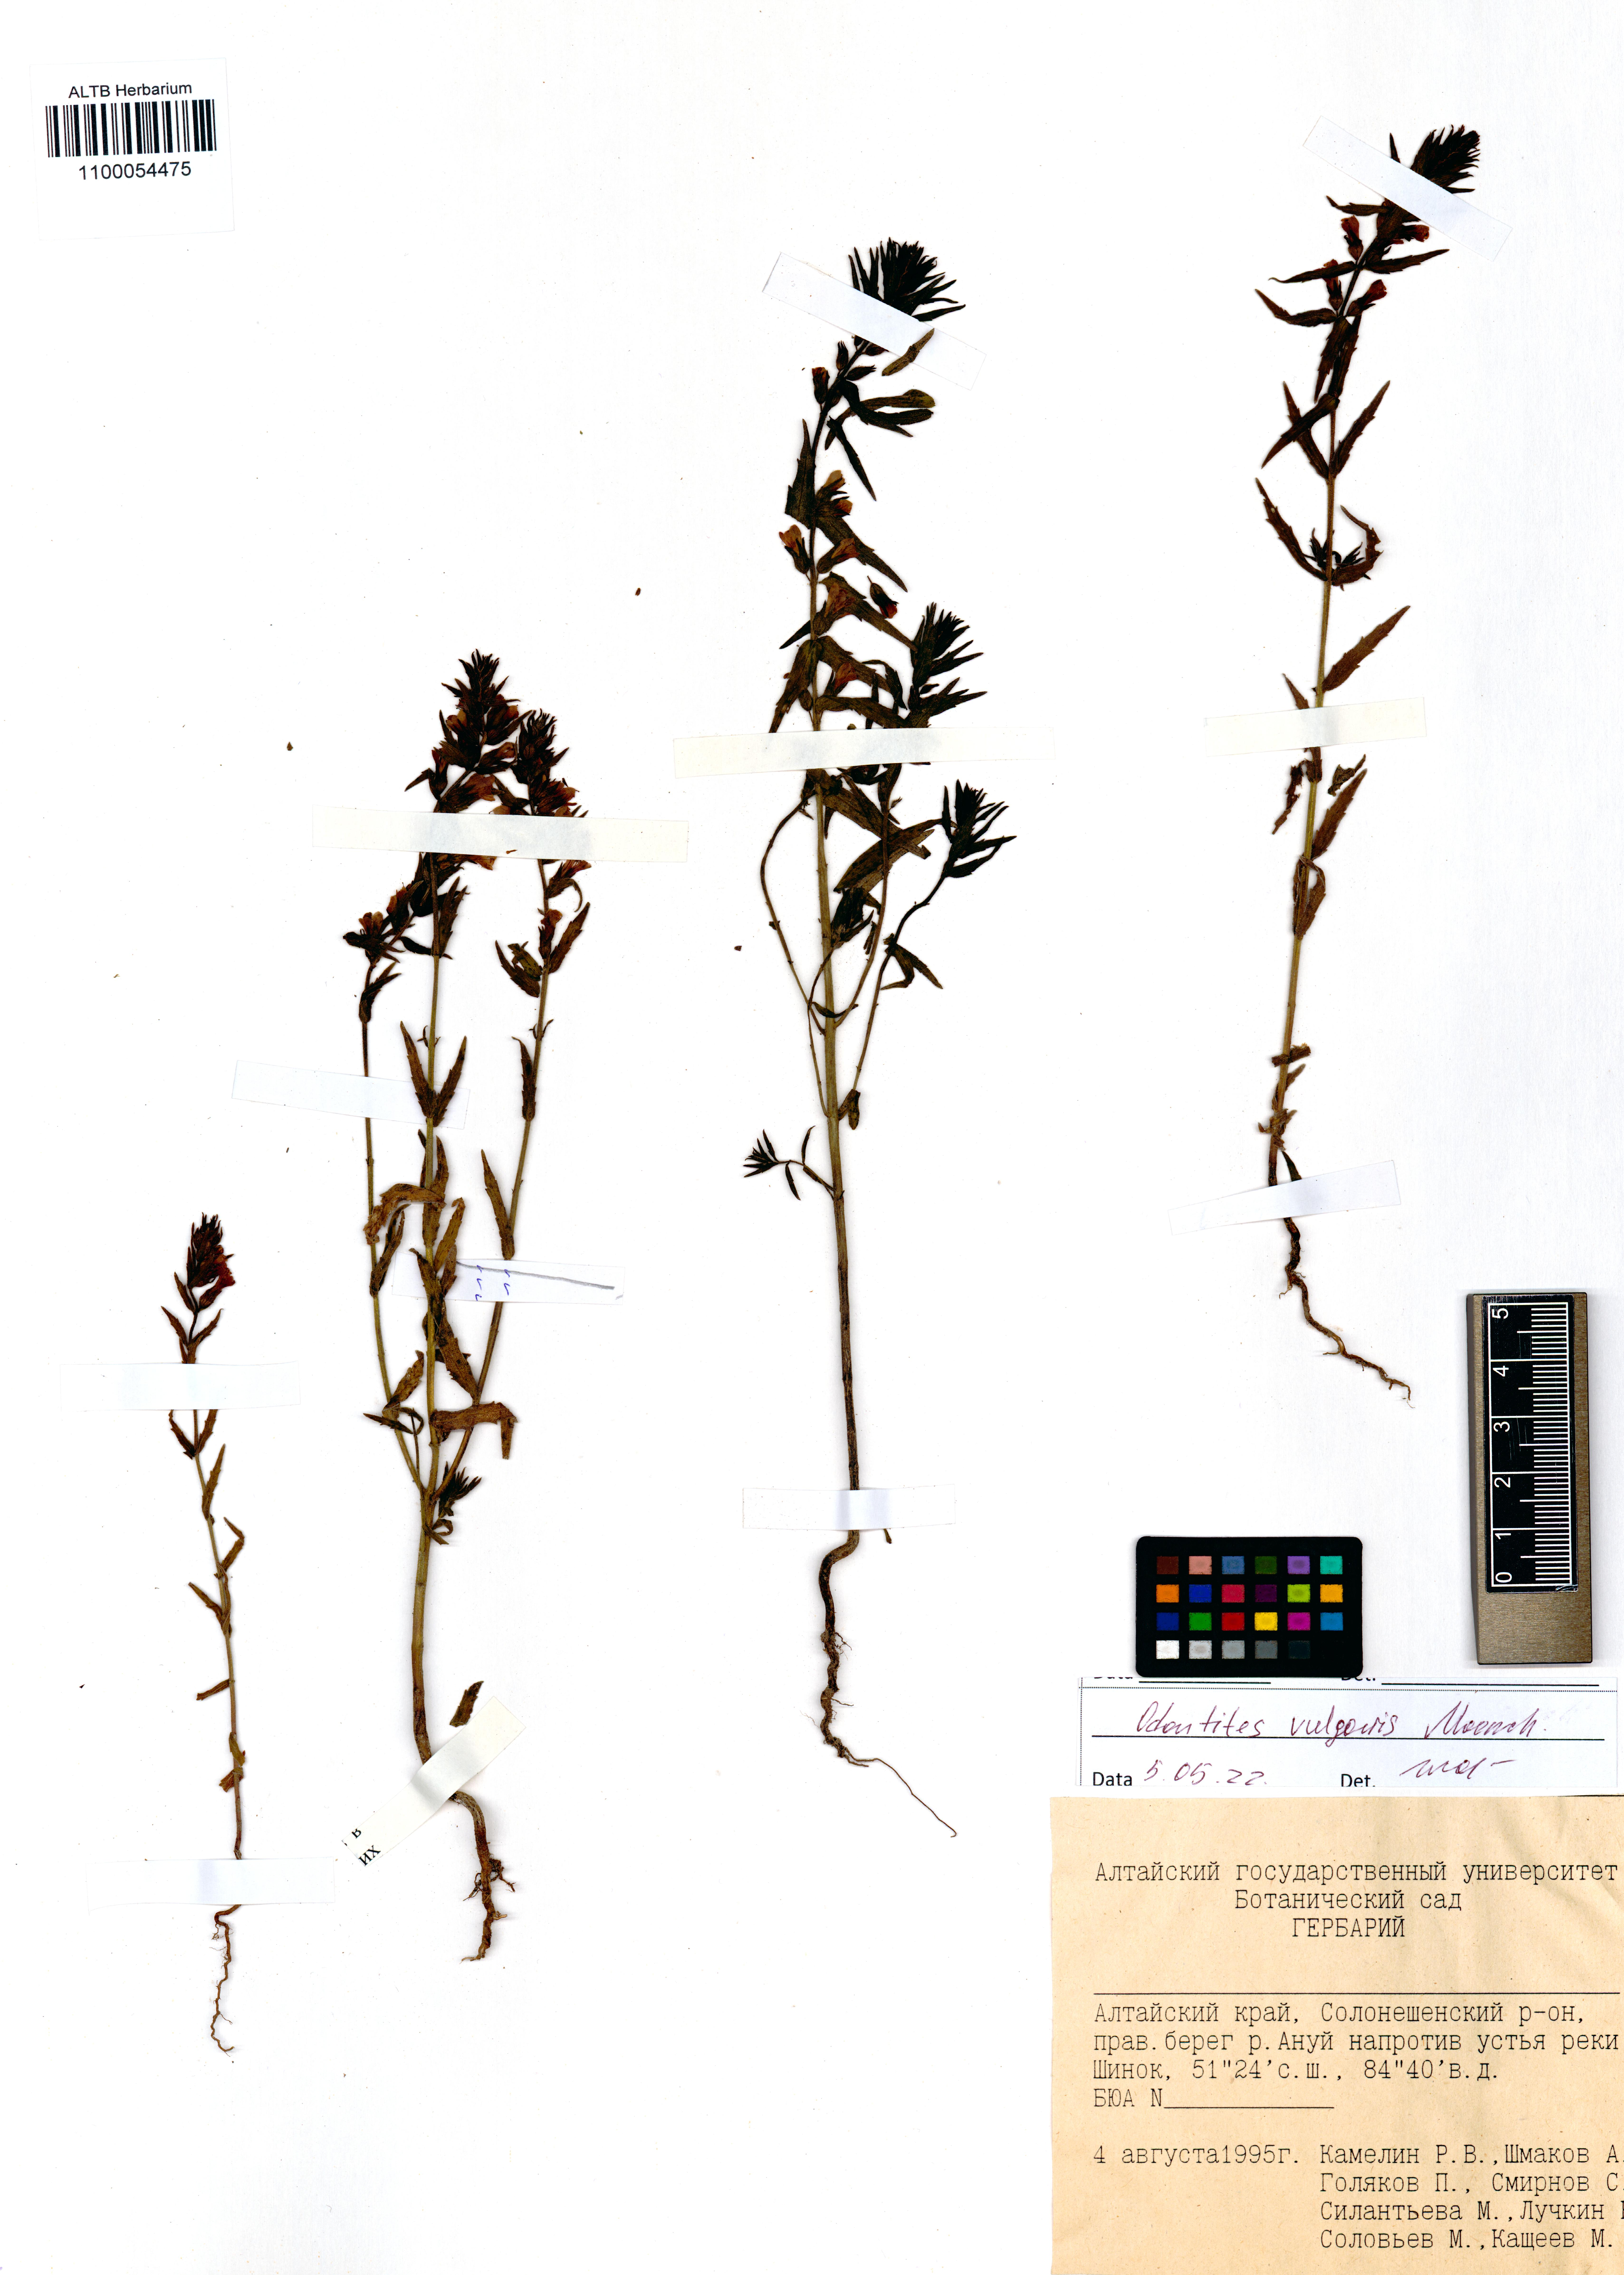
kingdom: Plantae
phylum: Tracheophyta
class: Magnoliopsida
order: Lamiales
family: Orobanchaceae
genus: Odontites
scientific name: Odontites vulgaris
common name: Broomrape
